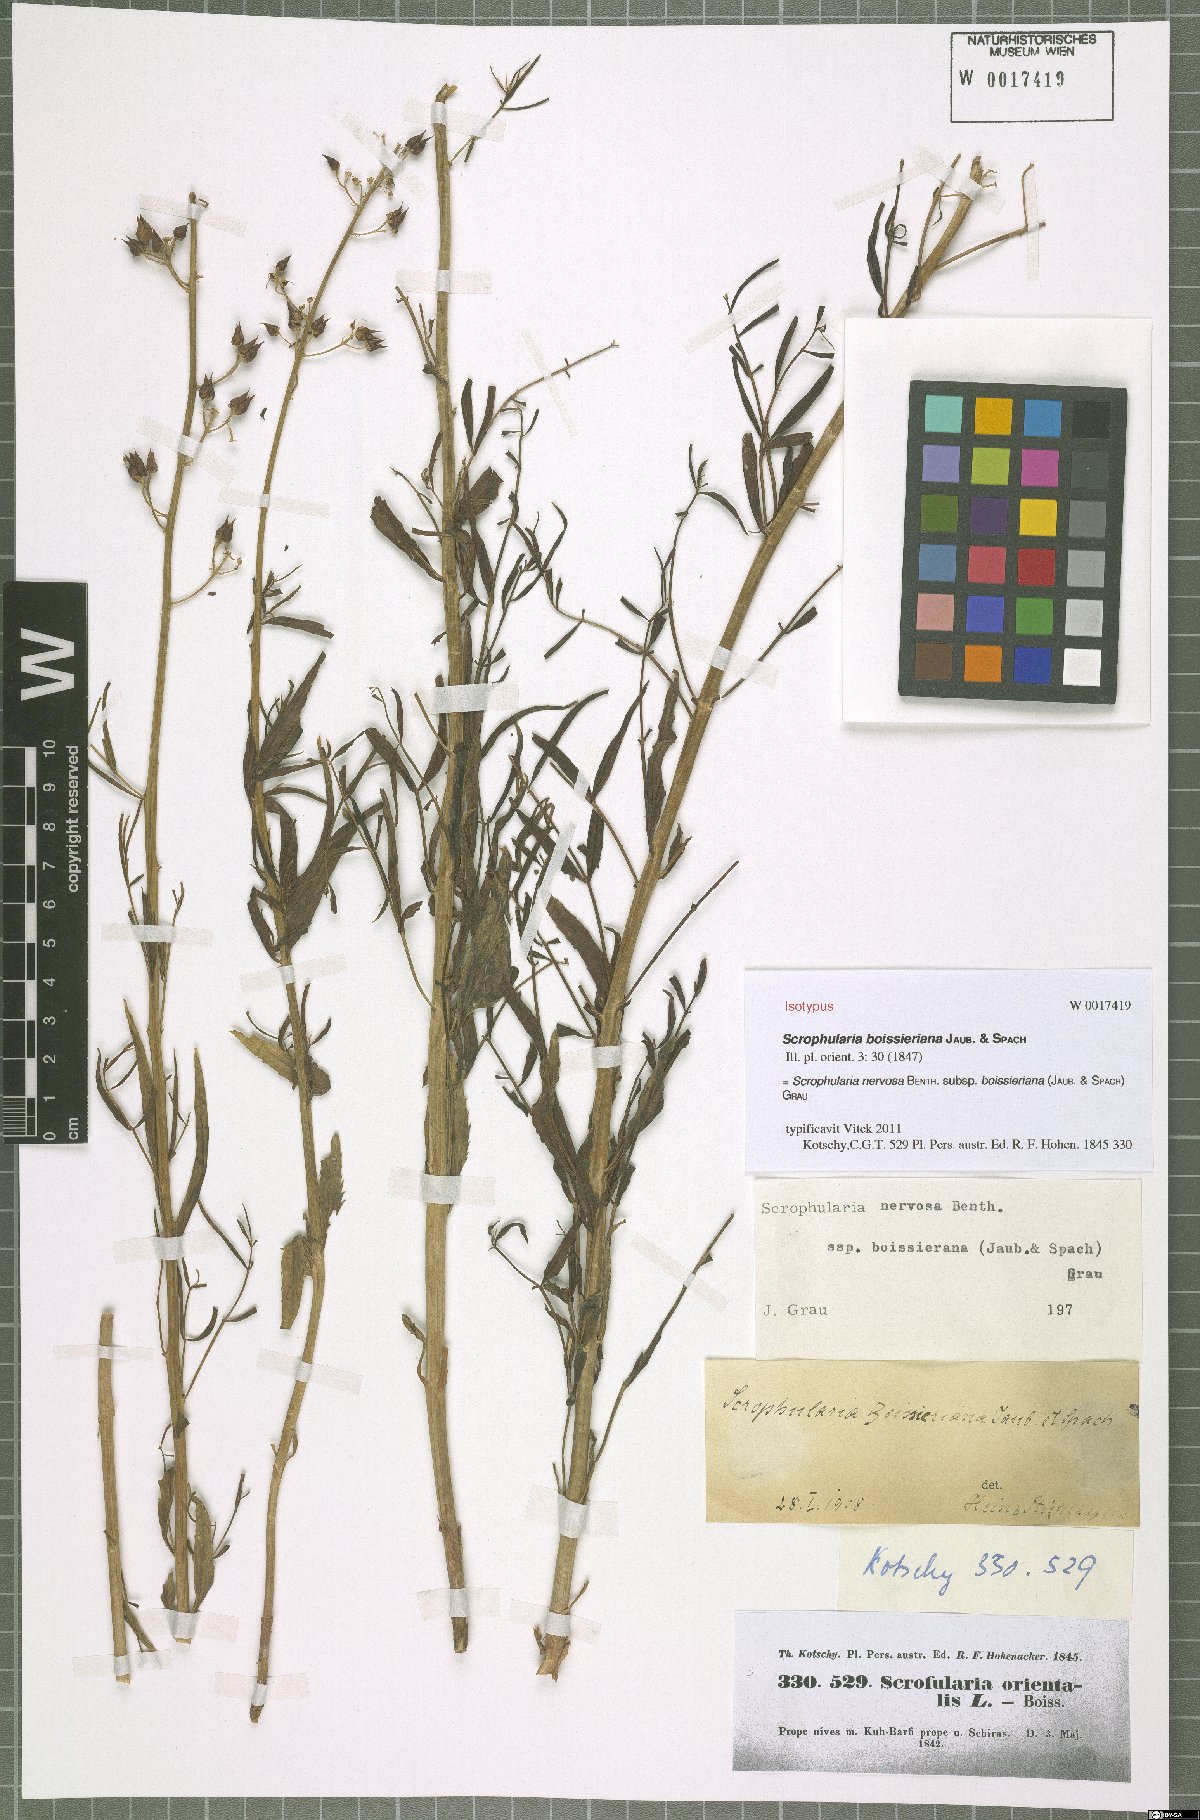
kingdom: Plantae
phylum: Tracheophyta
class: Magnoliopsida
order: Lamiales
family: Scrophulariaceae
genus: Scrophularia
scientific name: Scrophularia nervosa
